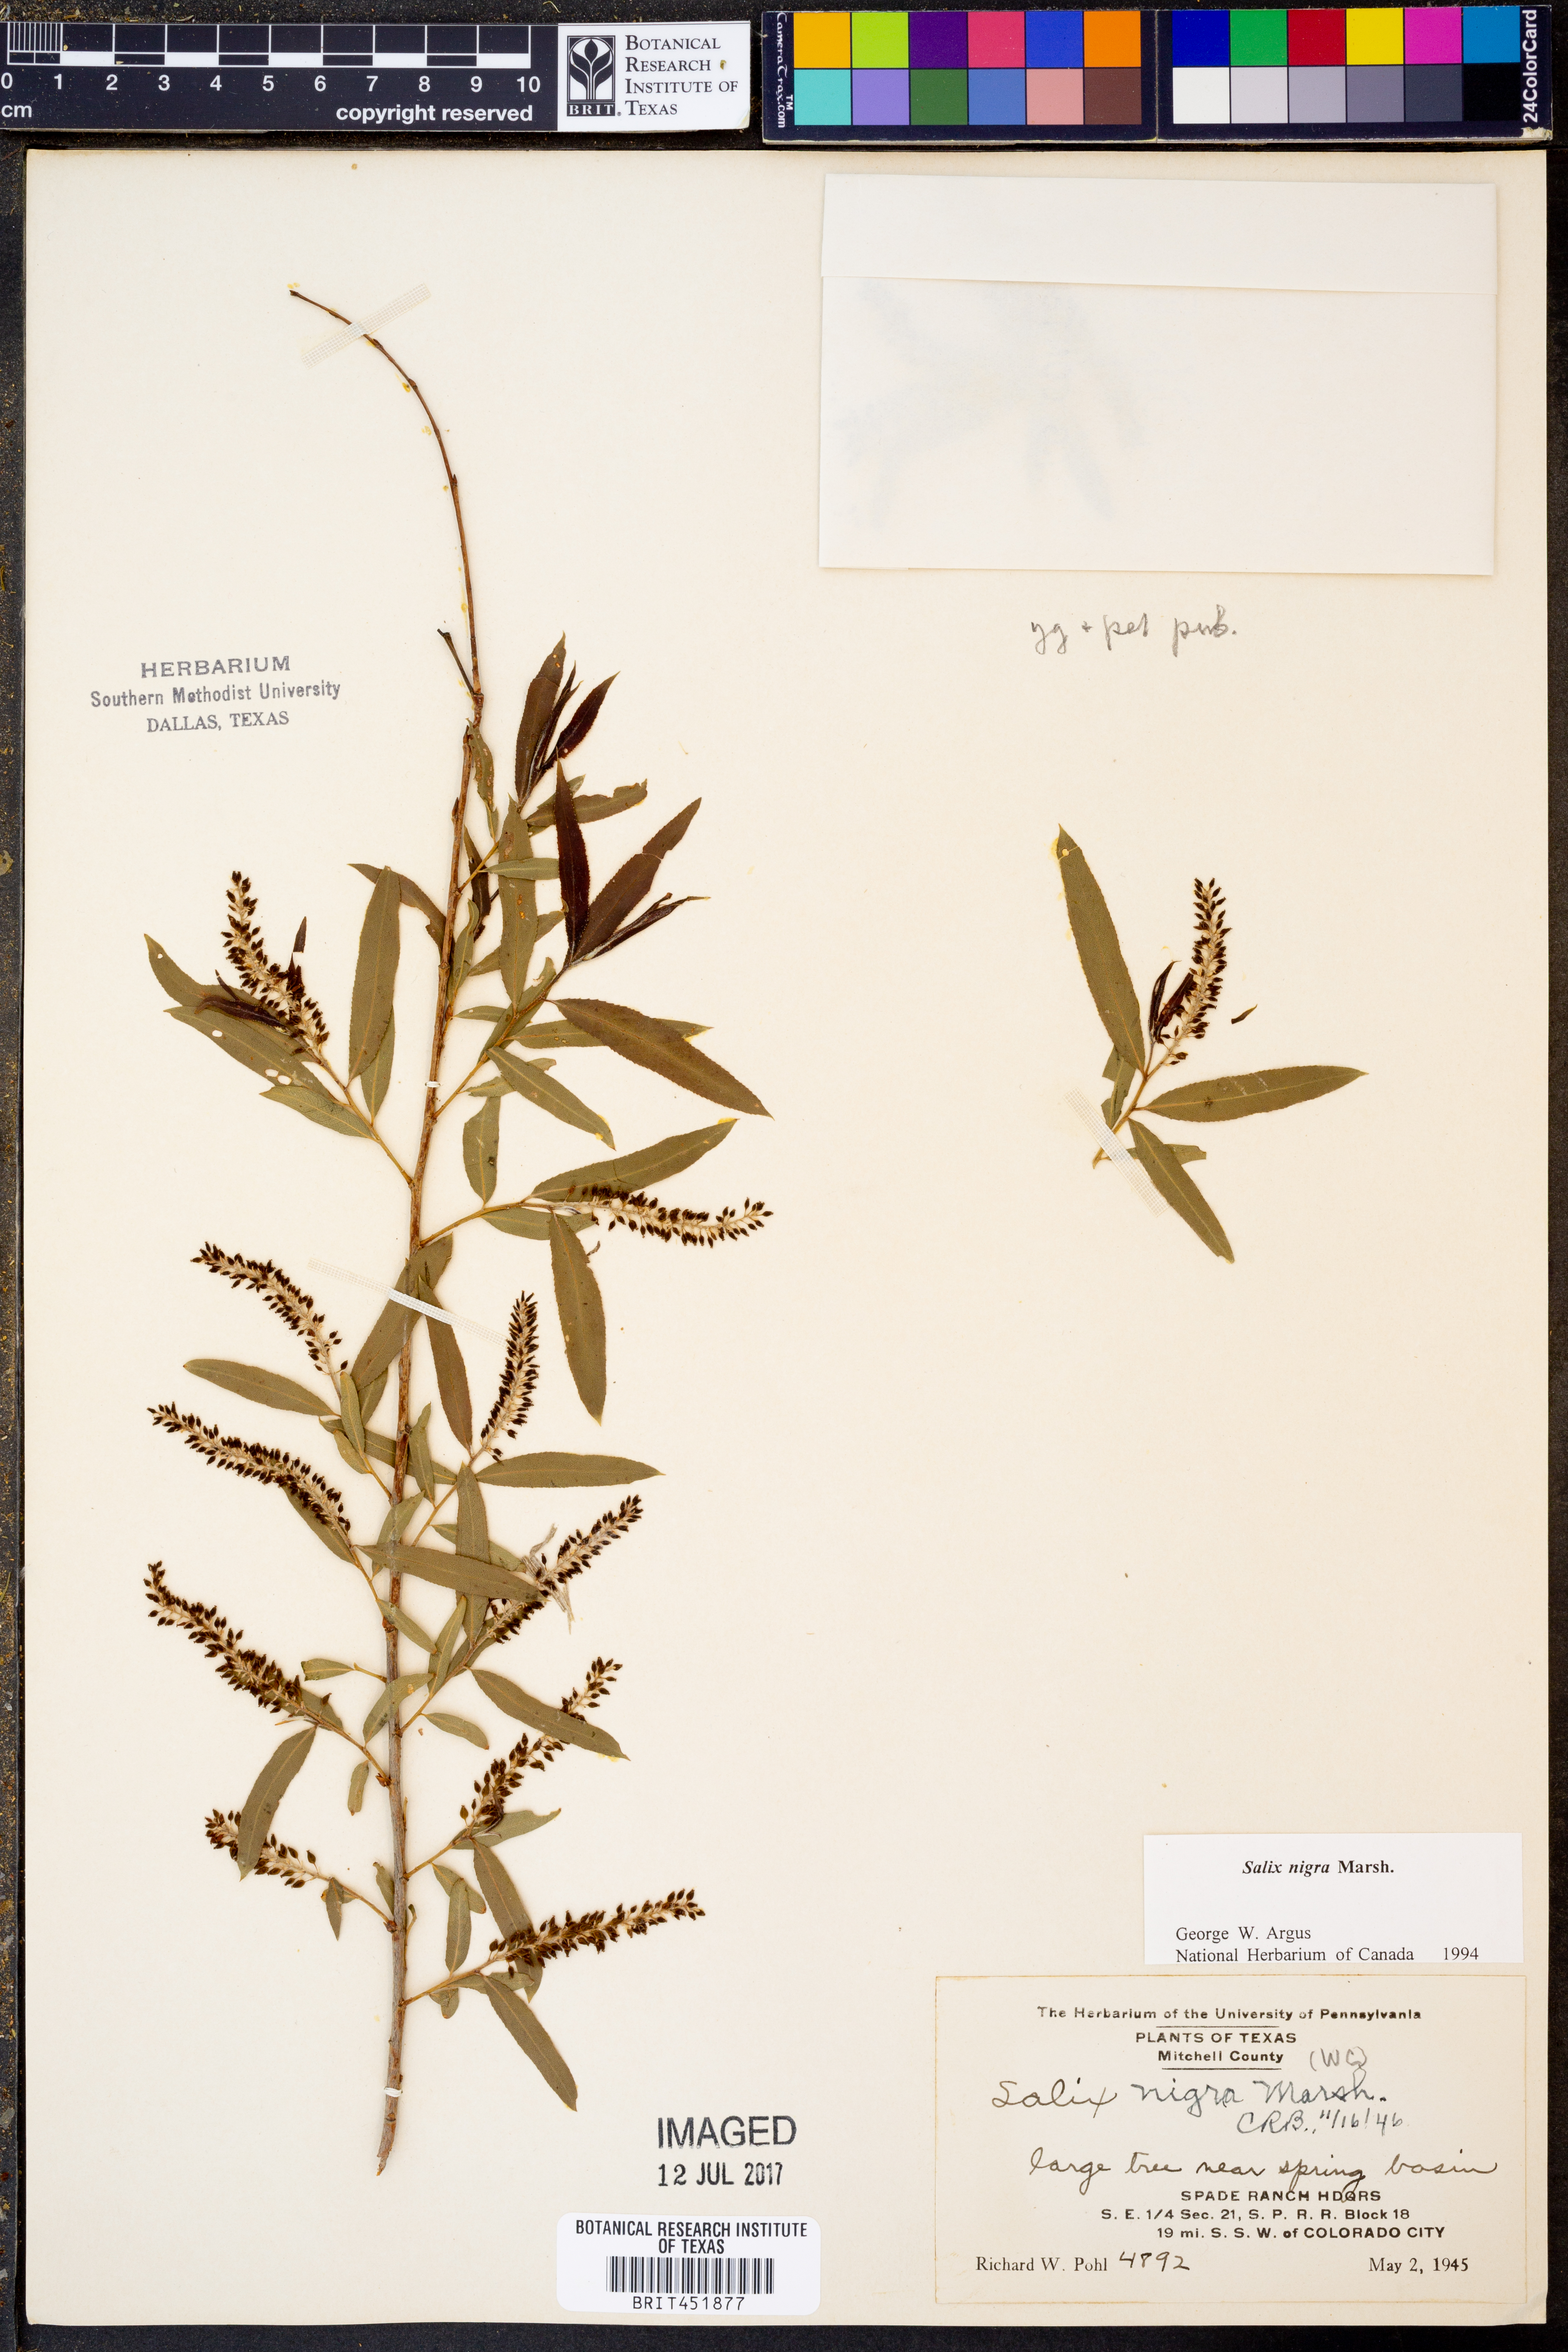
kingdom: Plantae
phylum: Tracheophyta
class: Magnoliopsida
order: Malpighiales
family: Salicaceae
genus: Salix
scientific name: Salix nigra
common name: Black willow
